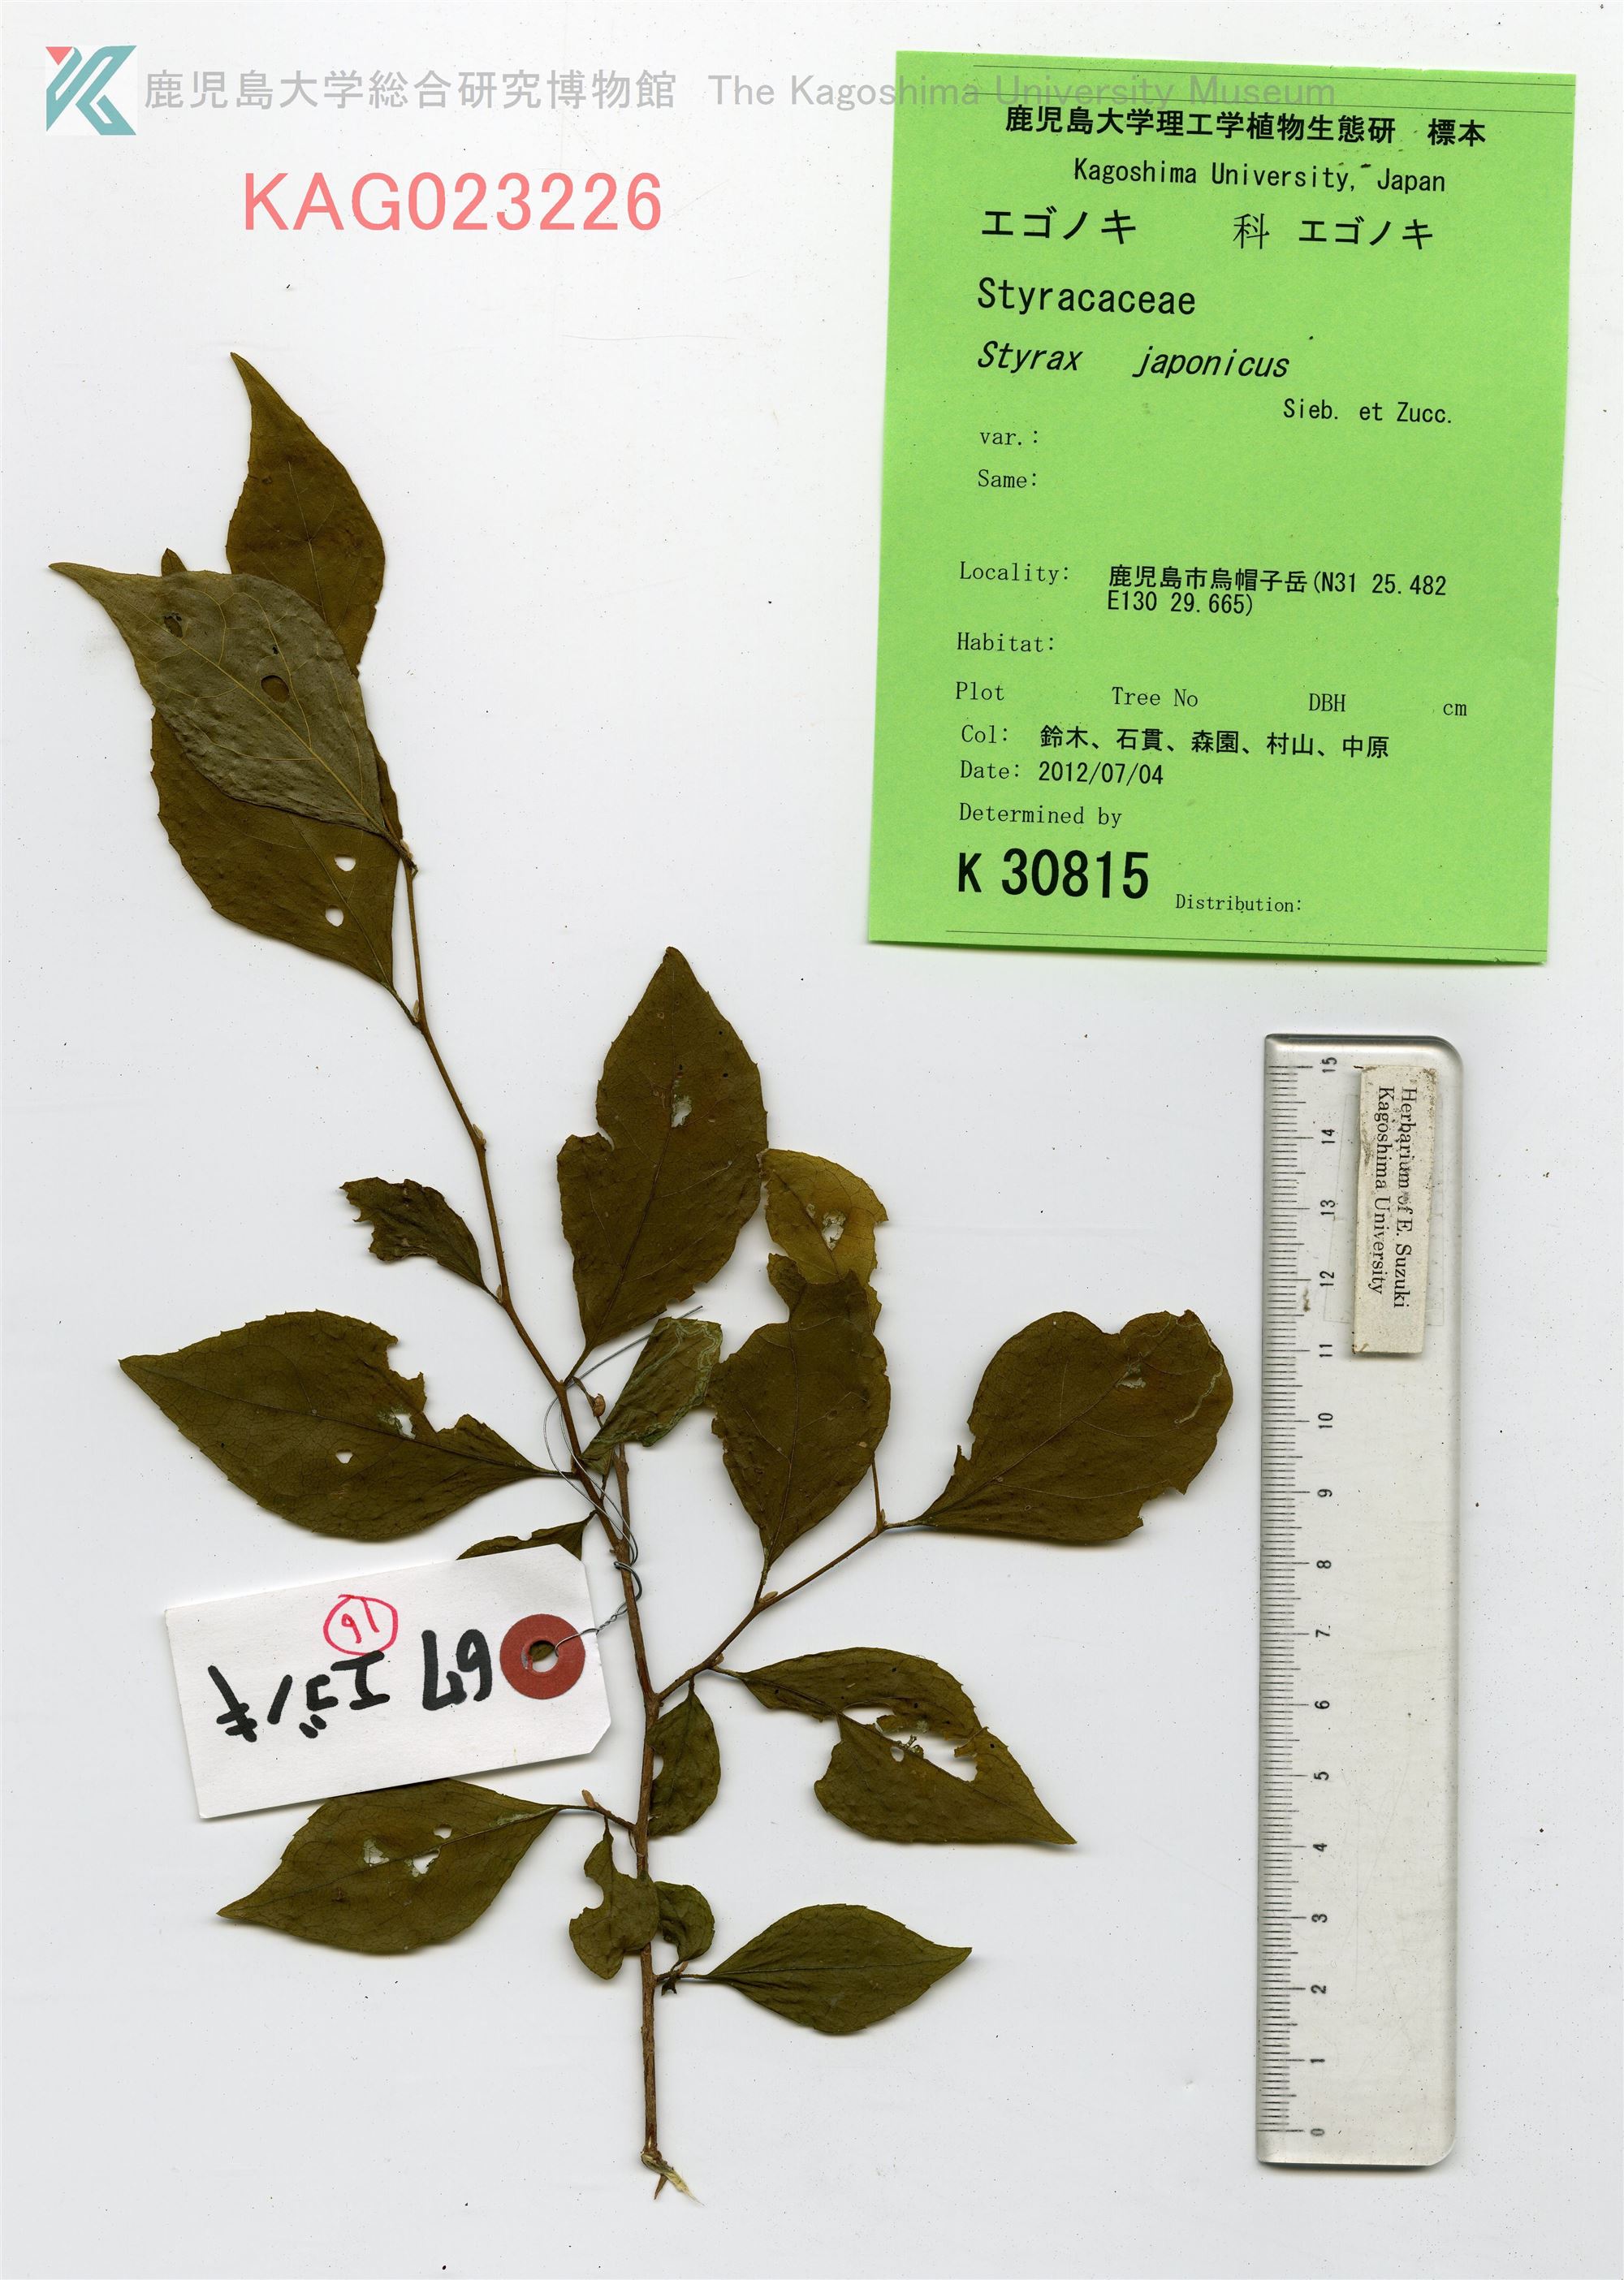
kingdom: Plantae
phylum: Tracheophyta
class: Magnoliopsida
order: Ericales
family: Styracaceae
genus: Styrax
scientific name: Styrax japonicus
